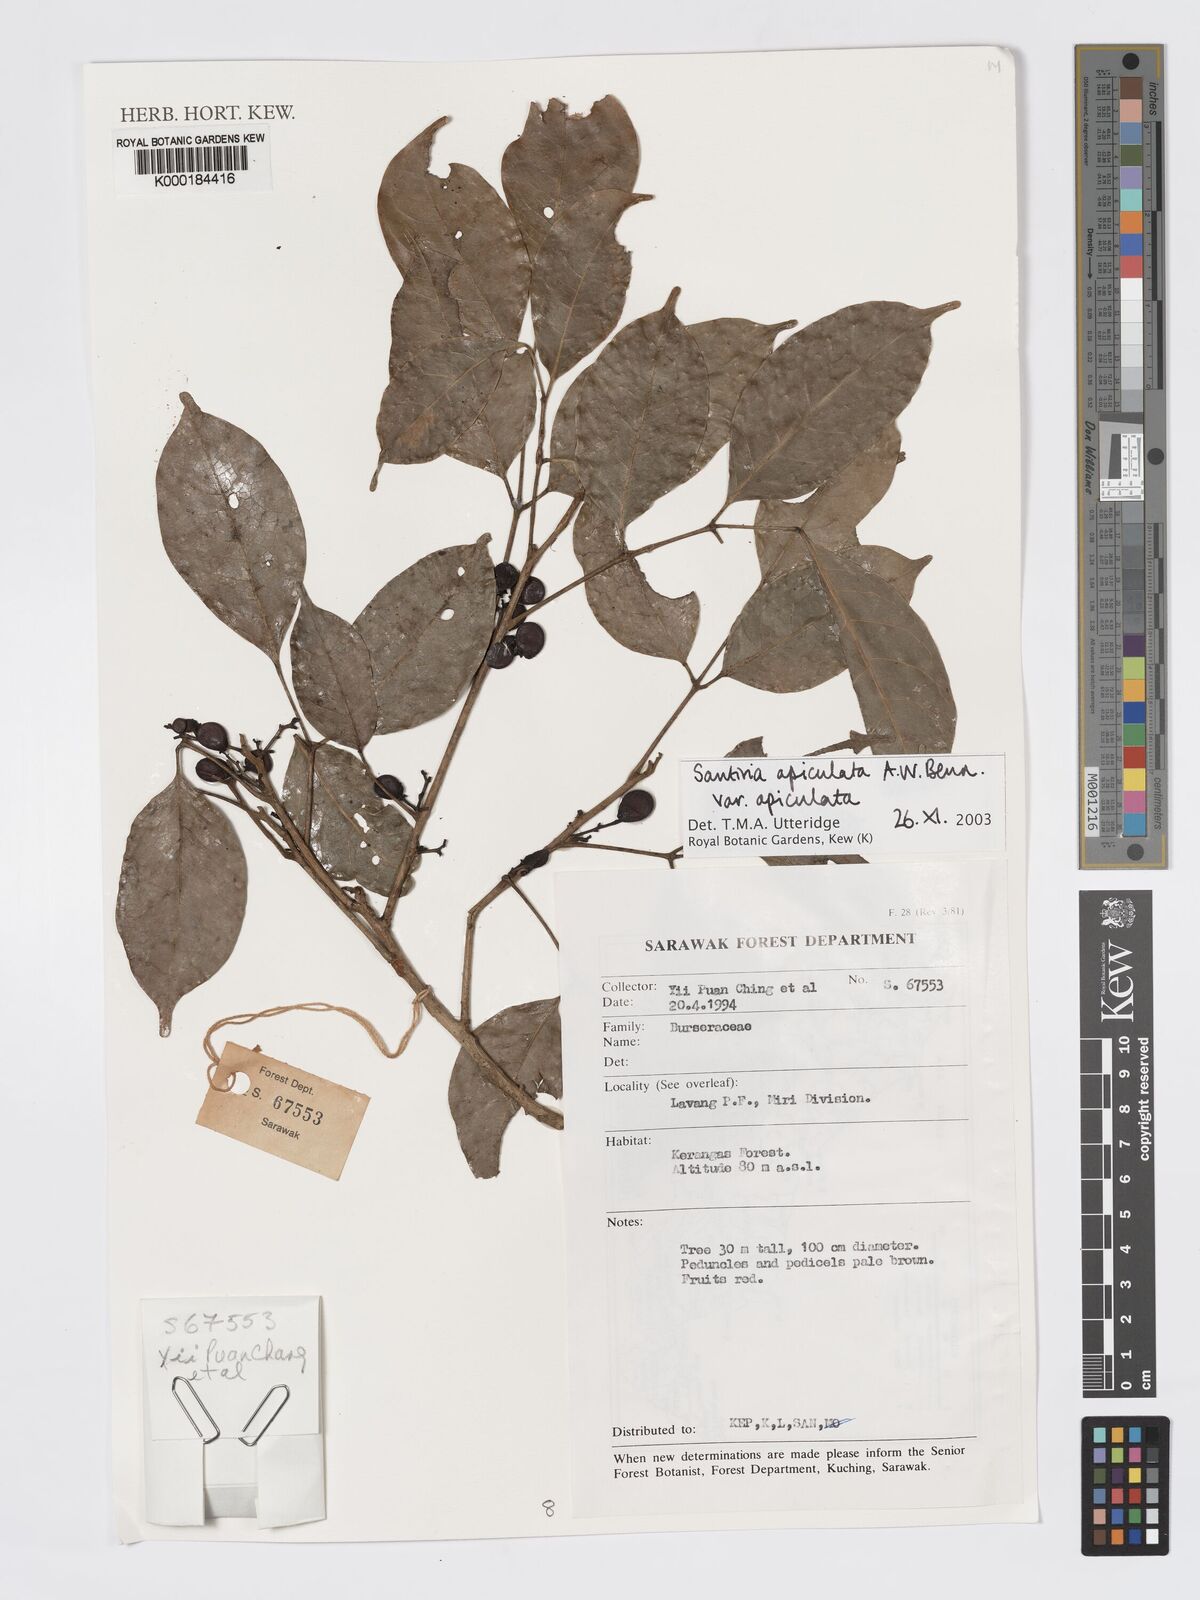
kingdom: Plantae
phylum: Tracheophyta
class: Magnoliopsida
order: Sapindales
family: Burseraceae
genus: Santiria
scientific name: Santiria apiculata
